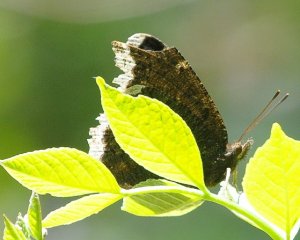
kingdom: Animalia
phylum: Arthropoda
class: Insecta
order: Lepidoptera
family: Nymphalidae
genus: Nymphalis
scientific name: Nymphalis antiopa
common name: Mourning Cloak
